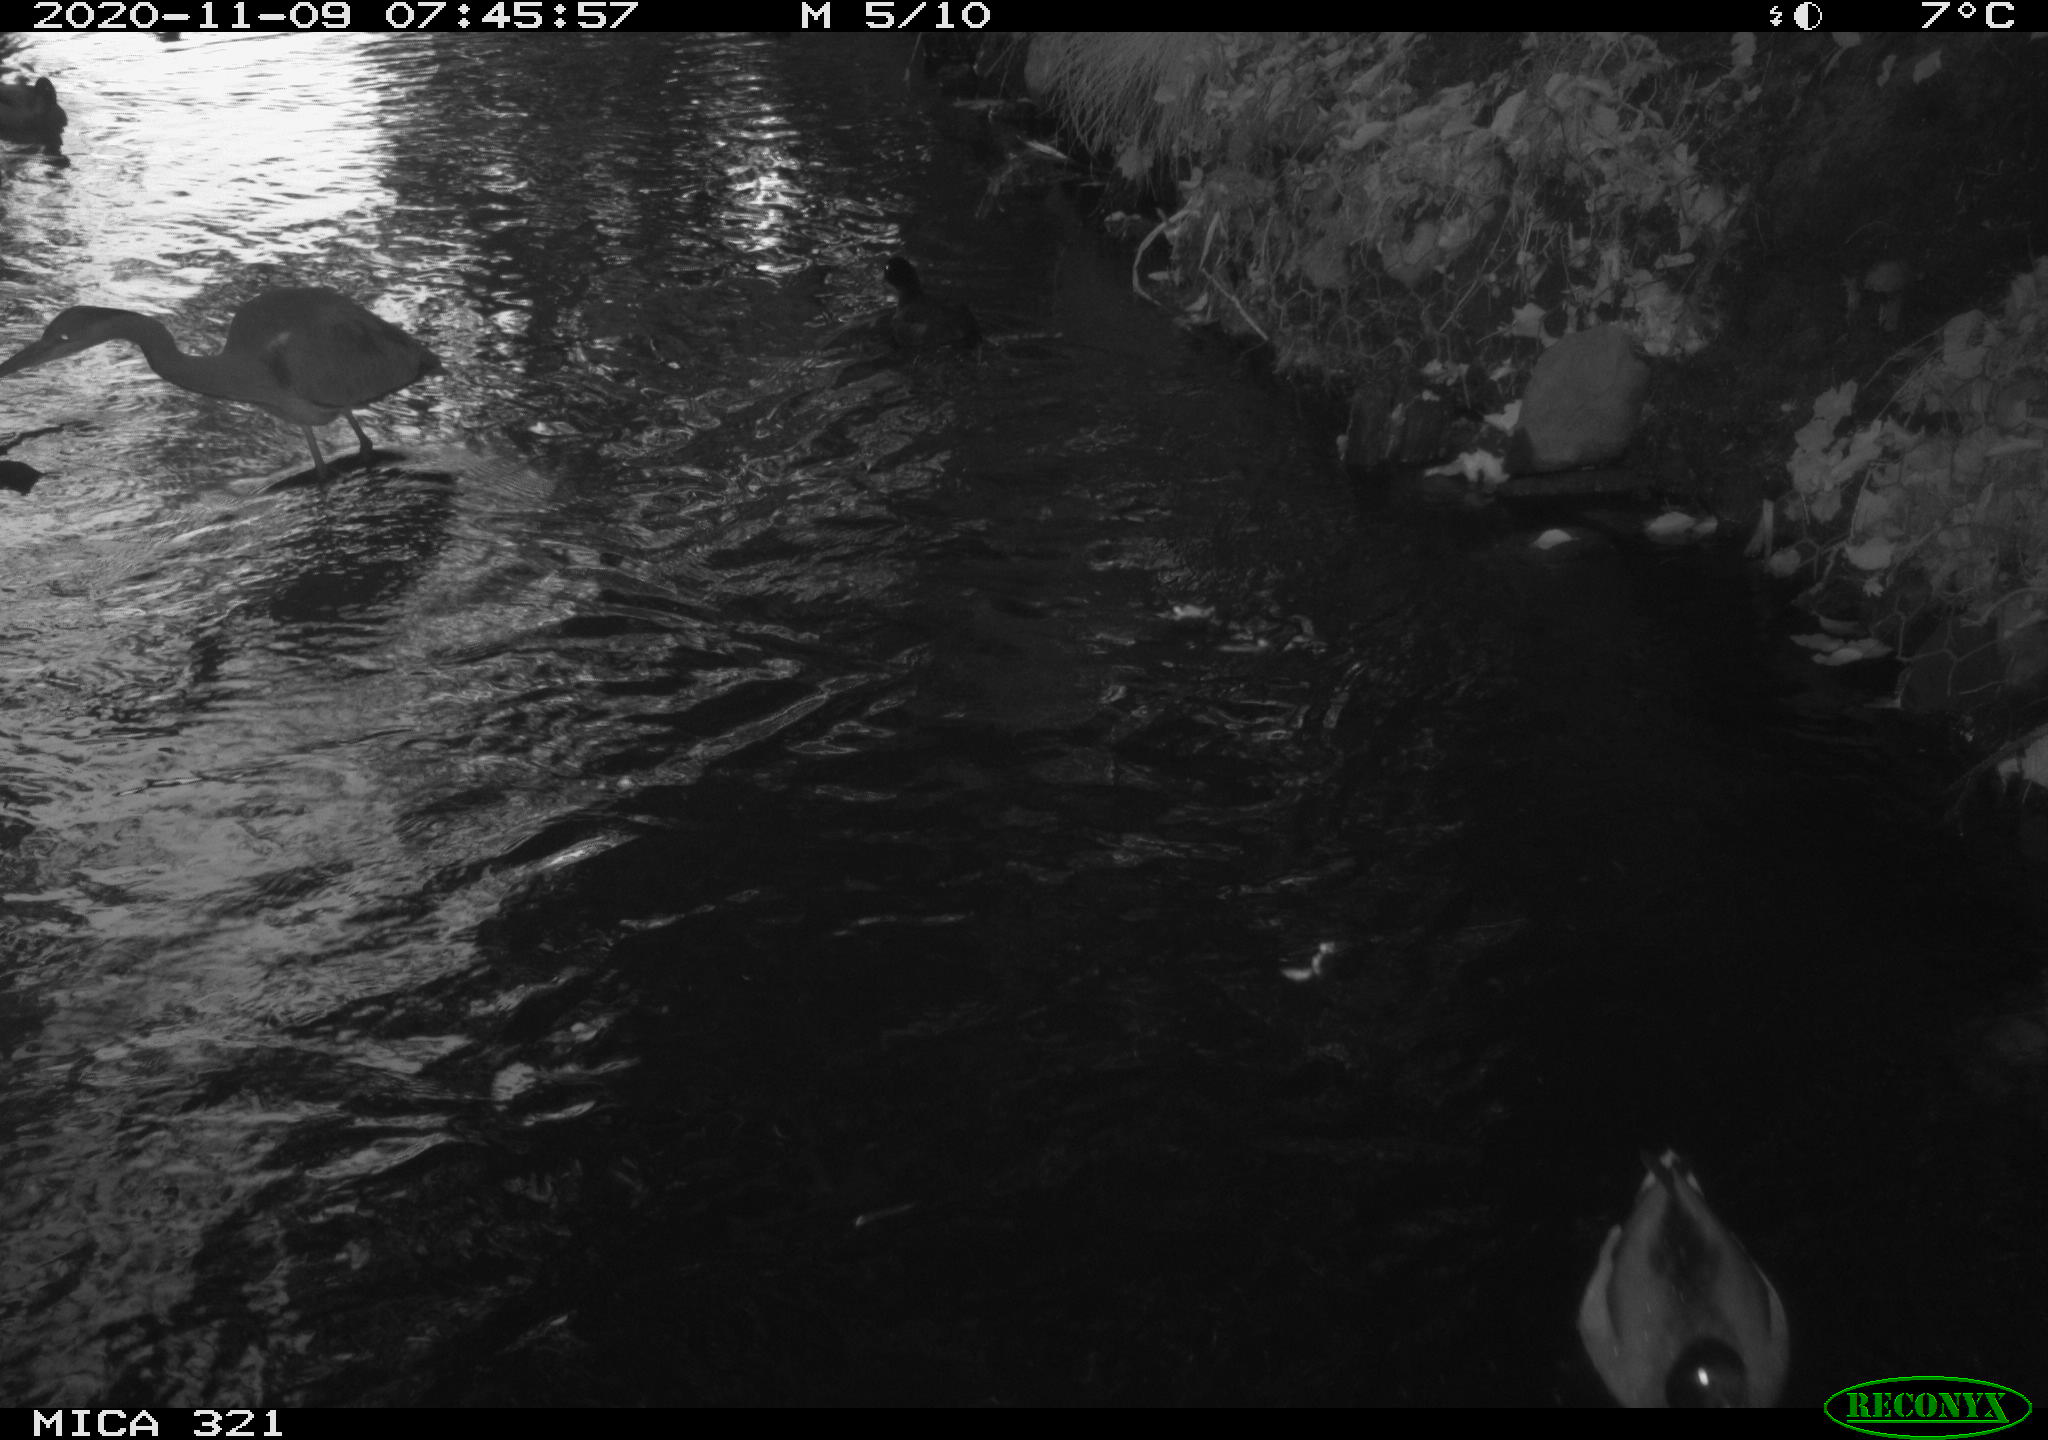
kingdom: Animalia
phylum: Chordata
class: Aves
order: Gruiformes
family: Rallidae
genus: Fulica
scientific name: Fulica atra
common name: Eurasian coot
